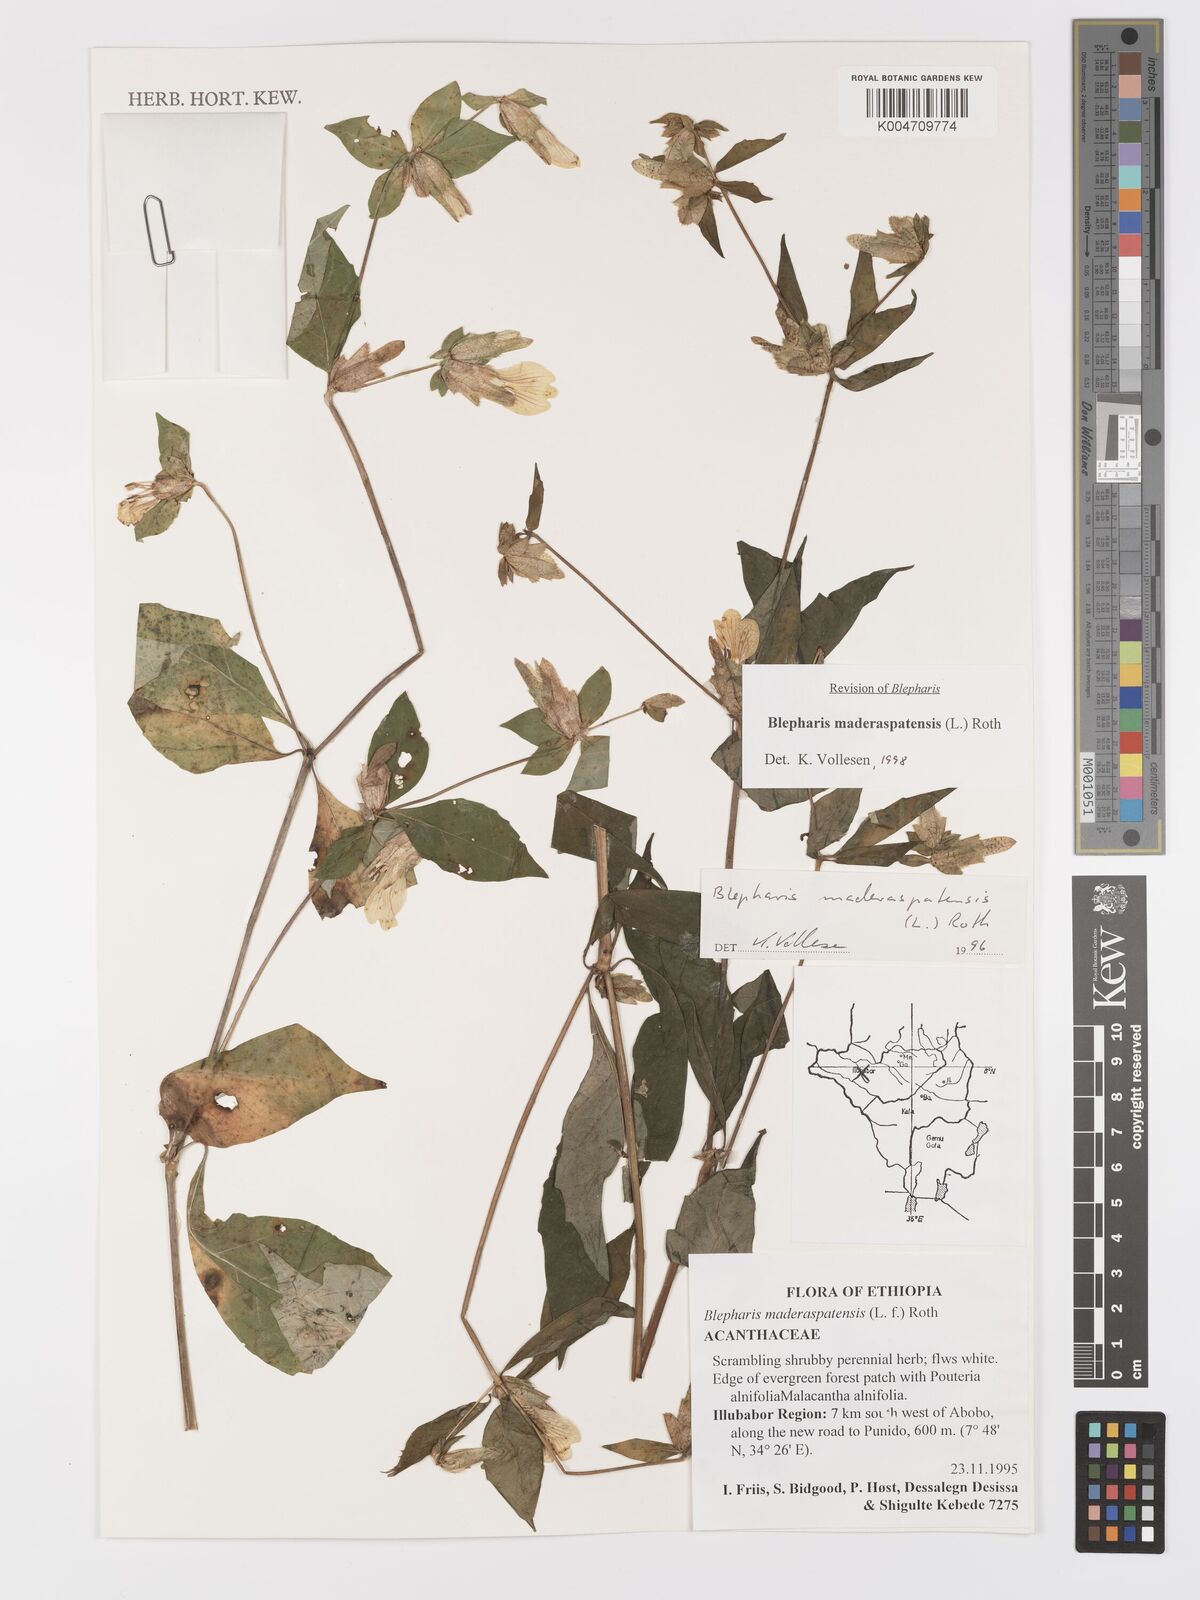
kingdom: Plantae
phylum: Tracheophyta
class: Magnoliopsida
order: Lamiales
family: Acanthaceae
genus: Blepharis
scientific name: Blepharis maderaspatensis
